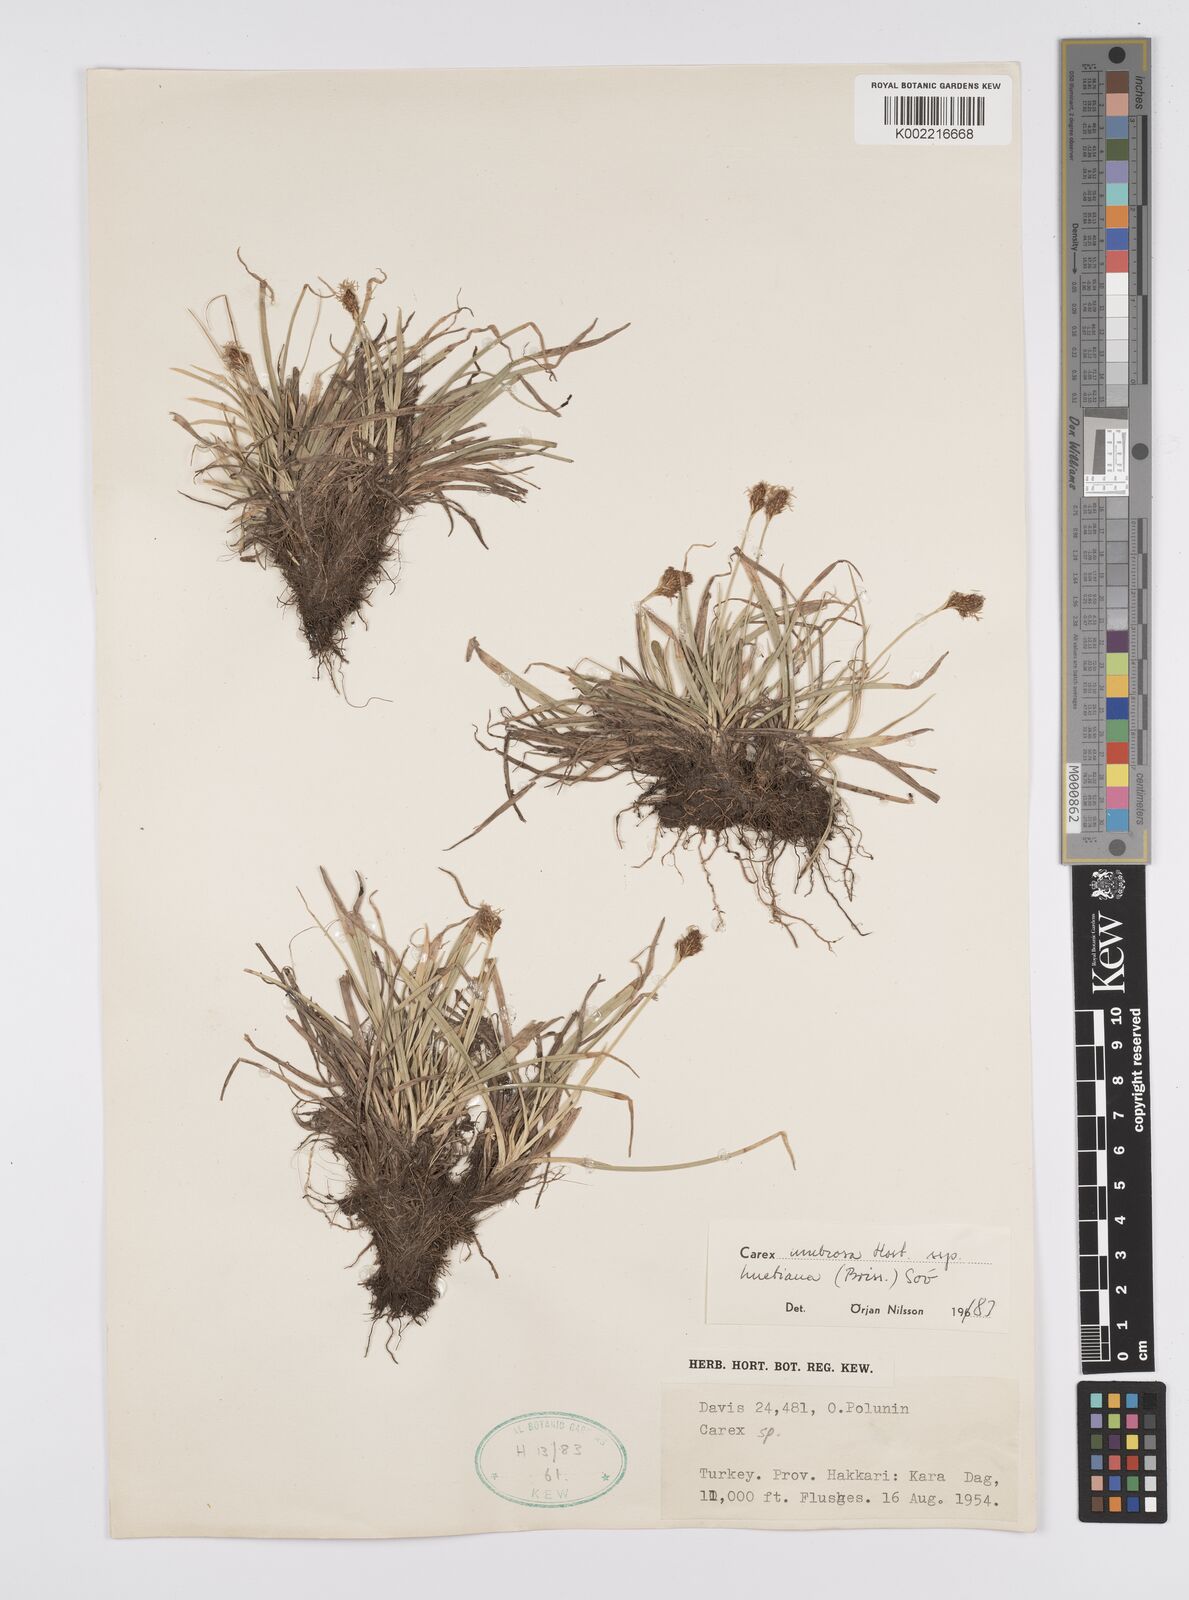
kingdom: Plantae
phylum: Tracheophyta
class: Liliopsida
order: Poales
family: Cyperaceae
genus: Carex
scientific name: Carex umbrosa
